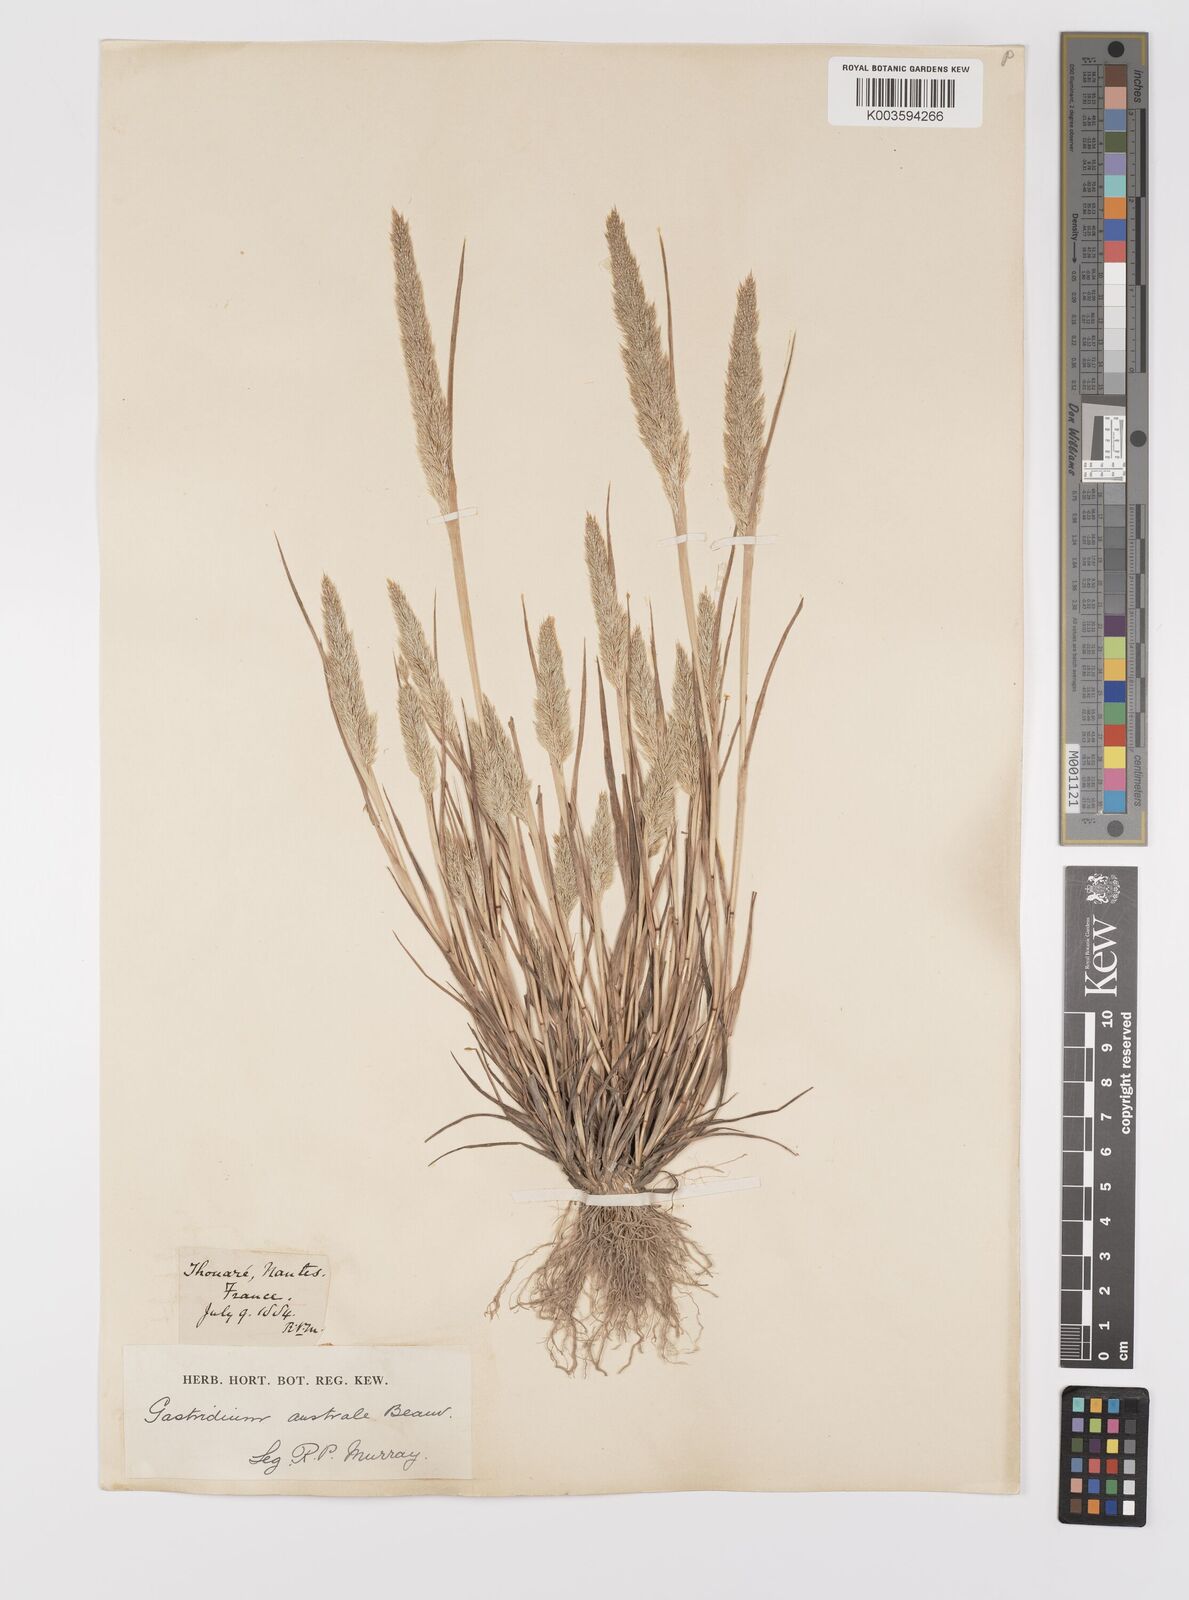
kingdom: Plantae
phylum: Tracheophyta
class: Liliopsida
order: Poales
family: Poaceae
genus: Gastridium
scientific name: Gastridium ventricosum
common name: Nit-grass
